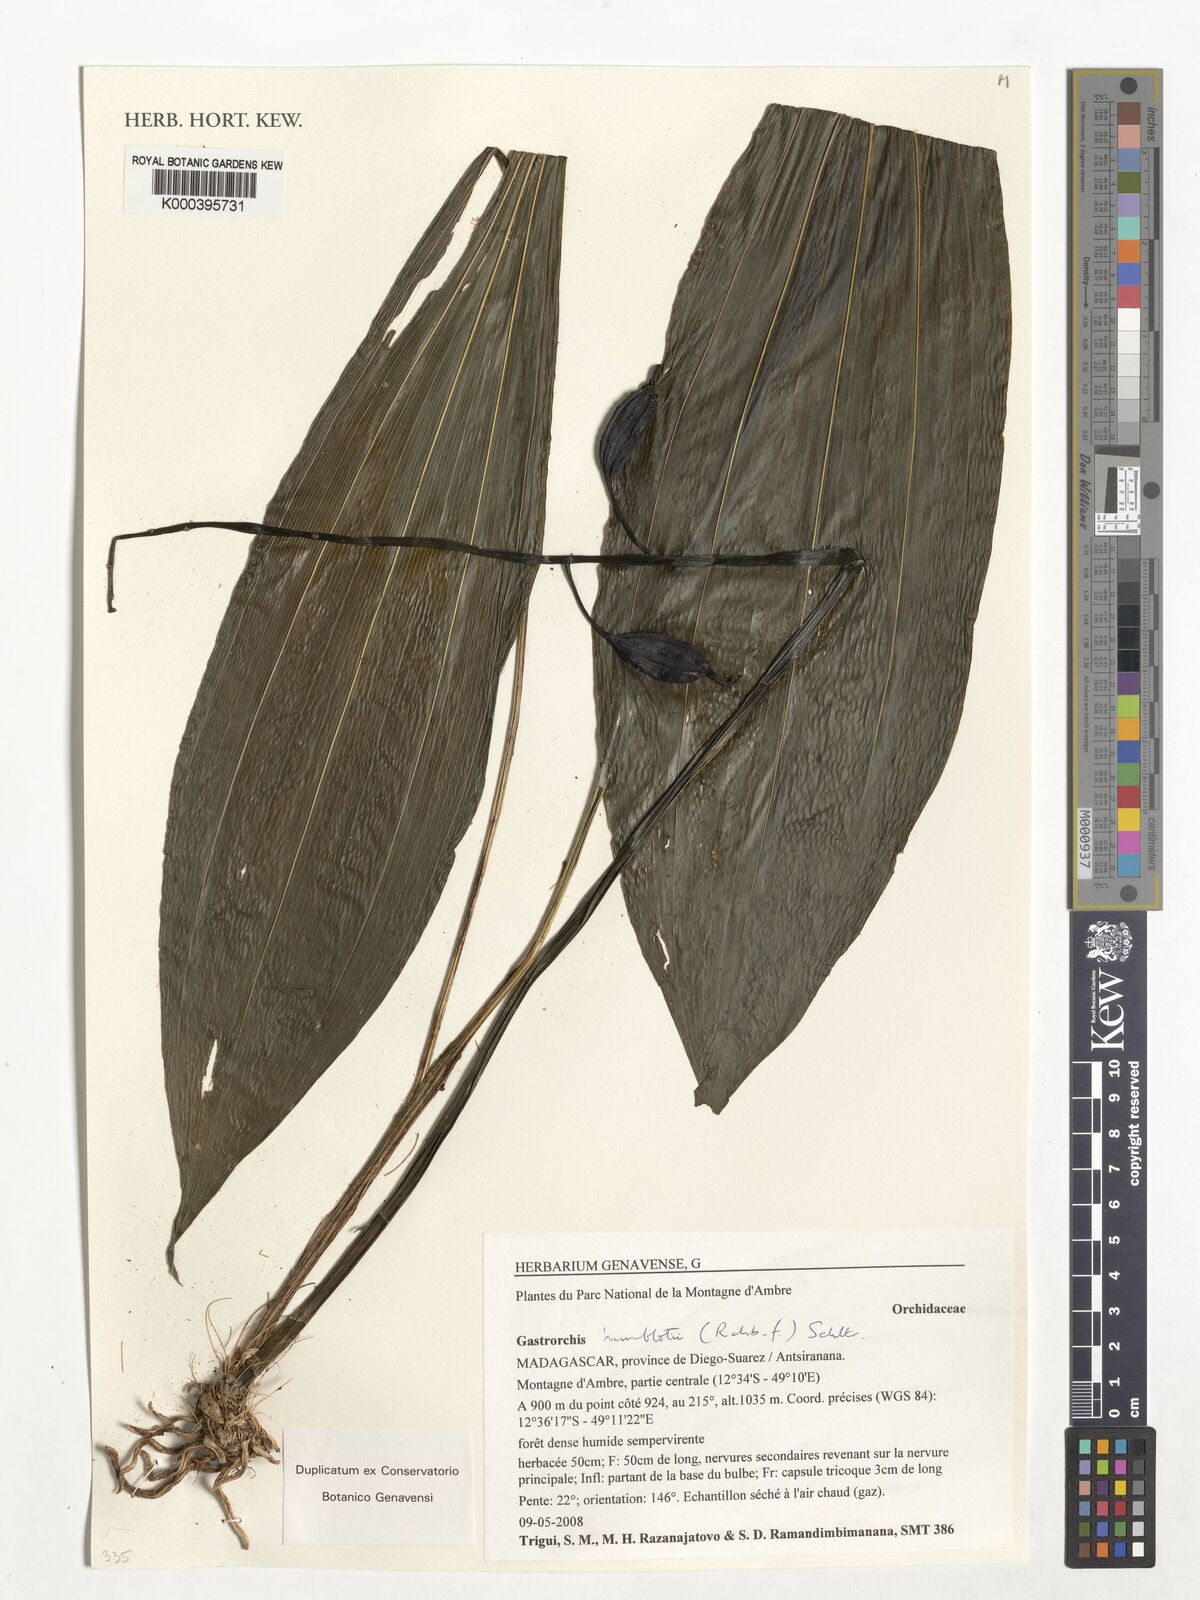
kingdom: Plantae
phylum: Tracheophyta
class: Liliopsida
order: Asparagales
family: Orchidaceae
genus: Calanthe
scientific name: Calanthe humblotii
